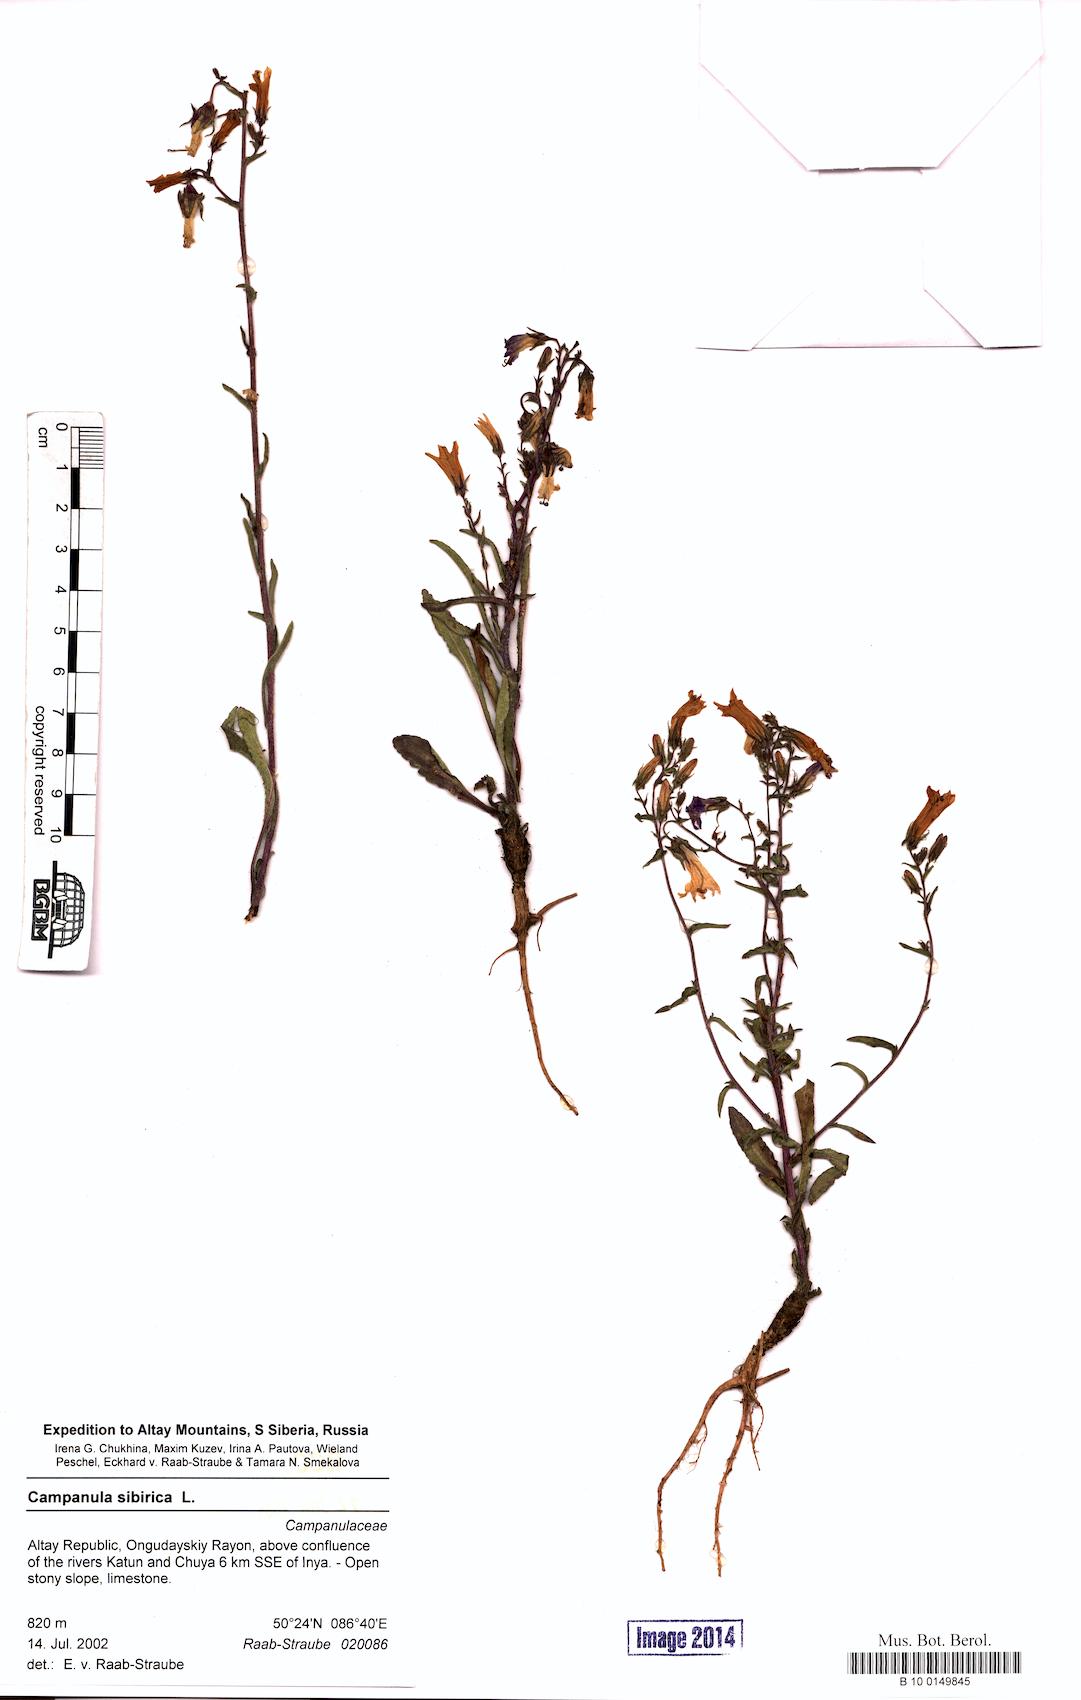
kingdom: Plantae
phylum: Tracheophyta
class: Magnoliopsida
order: Asterales
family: Campanulaceae
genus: Campanula
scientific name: Campanula sibirica
